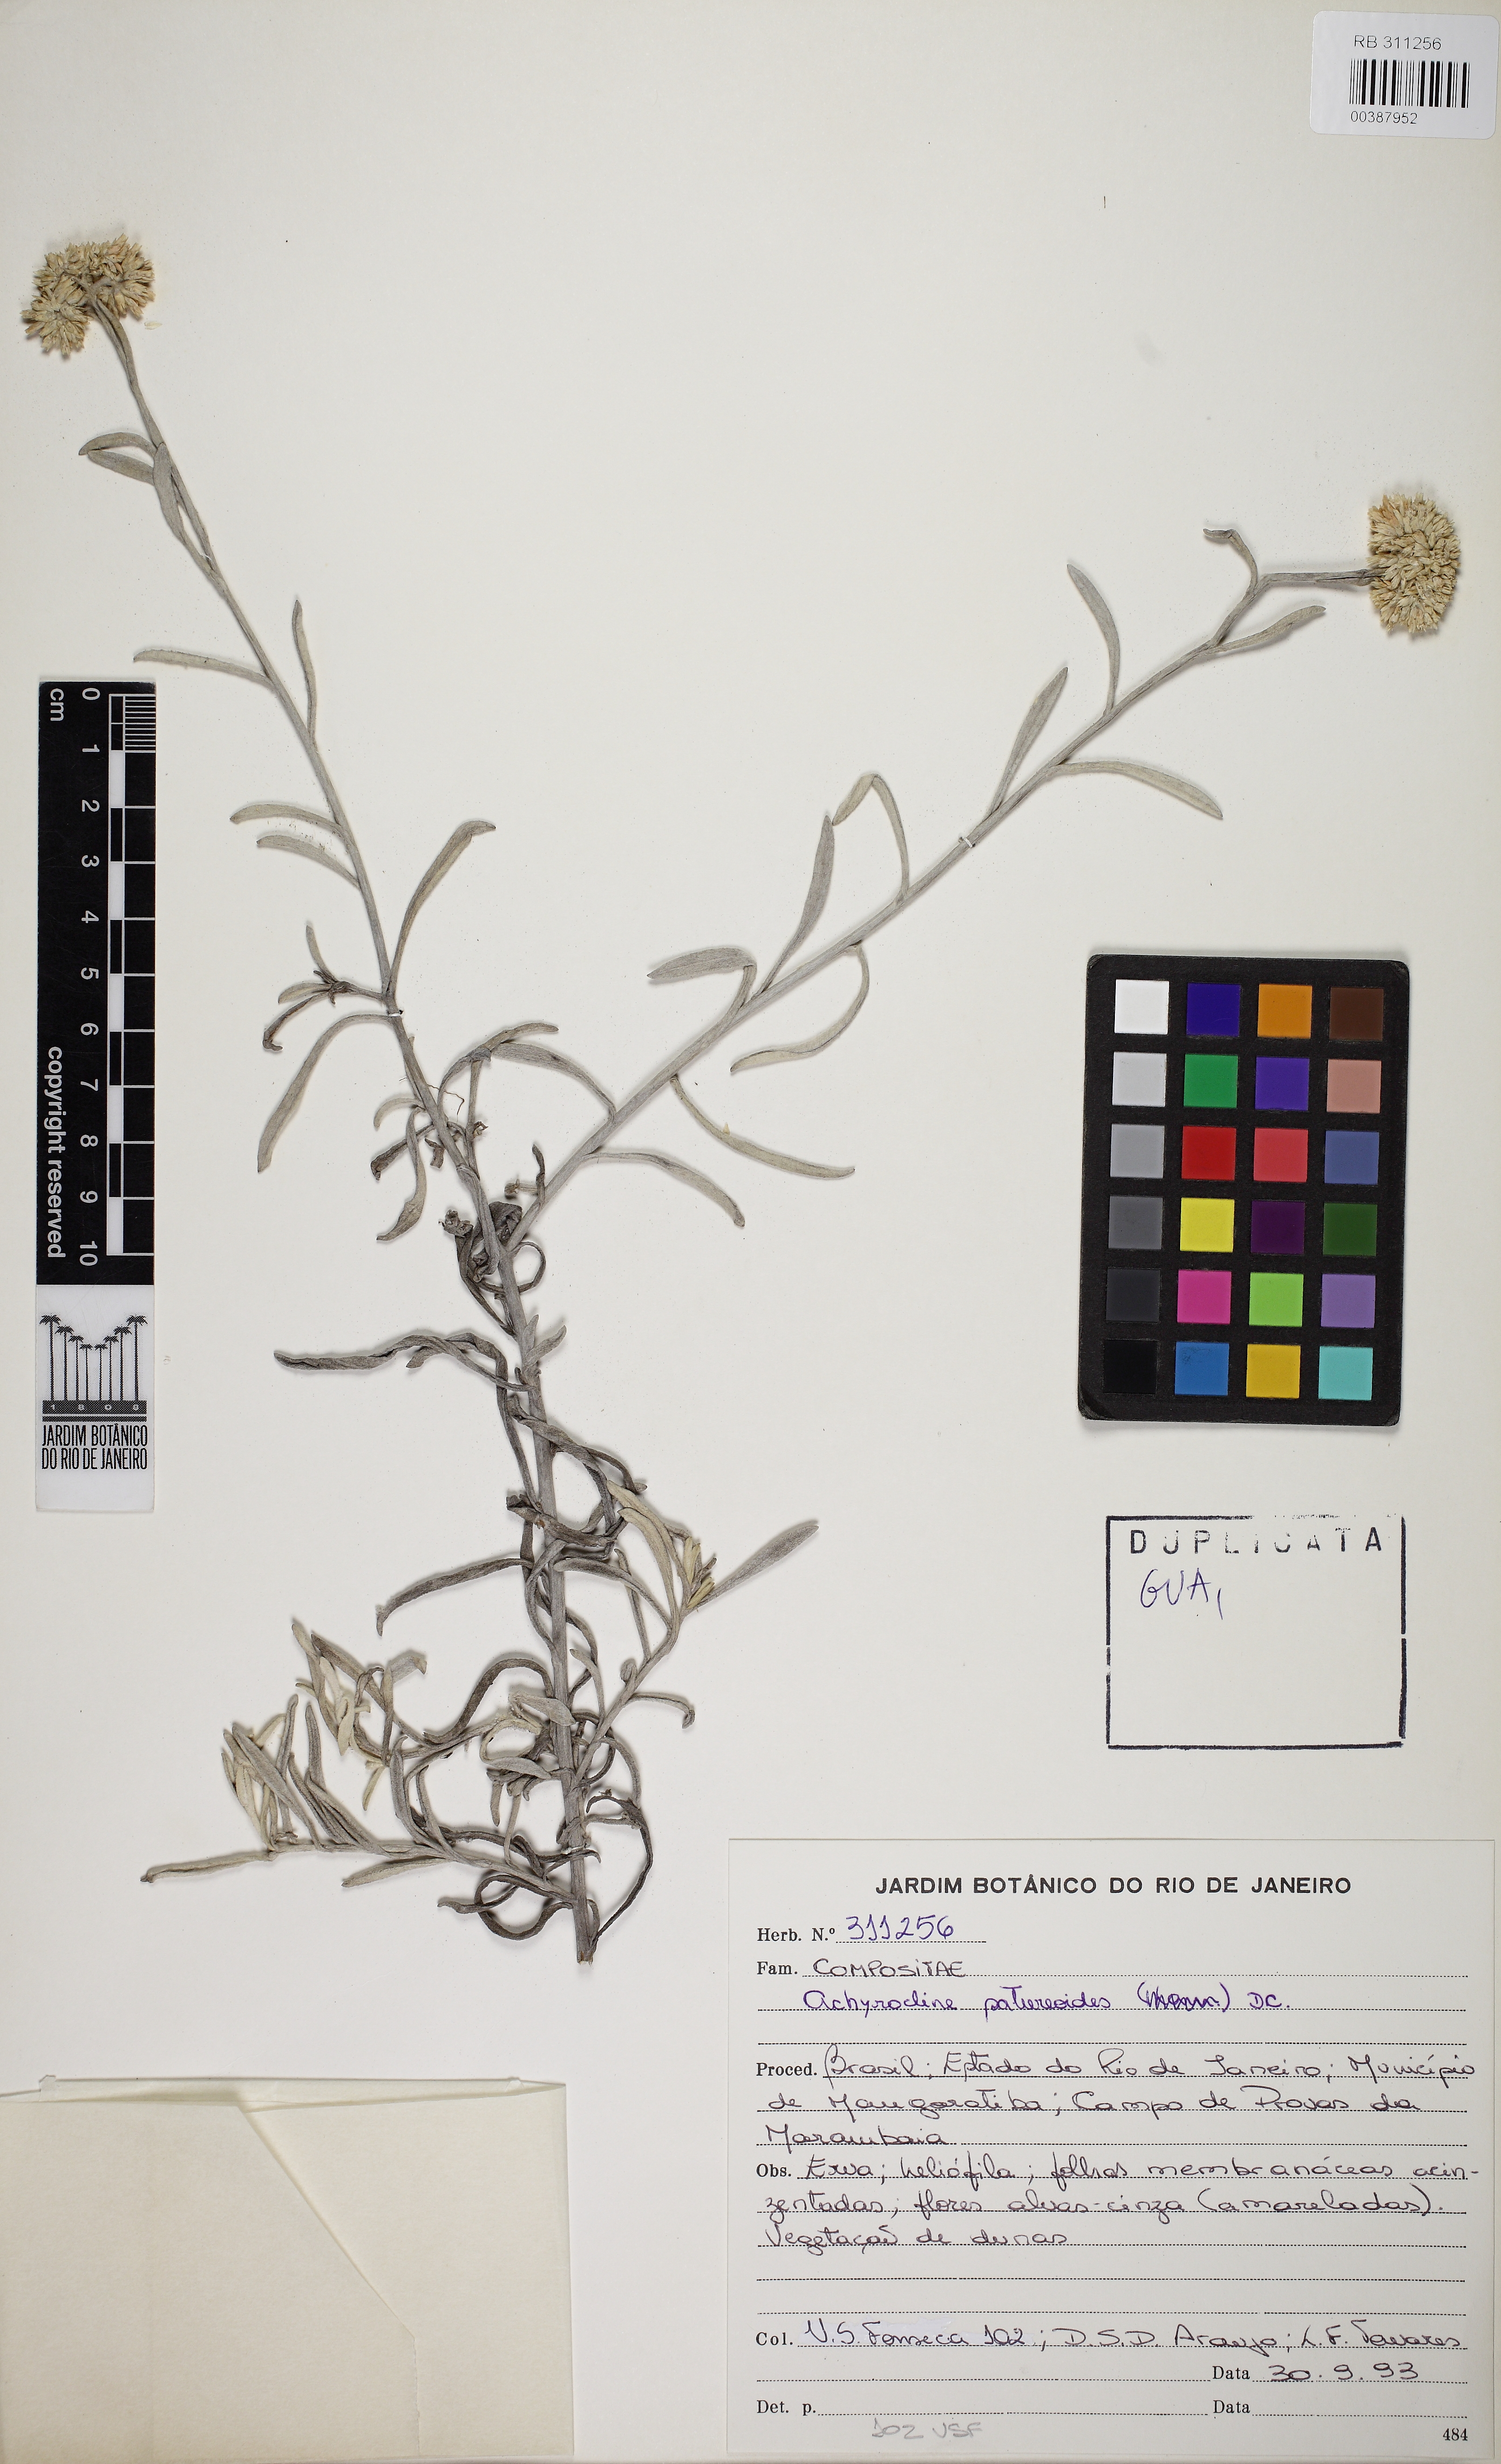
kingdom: Plantae
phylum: Tracheophyta
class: Magnoliopsida
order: Asterales
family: Asteraceae
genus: Achyrocline
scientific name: Achyrocline satureioides
